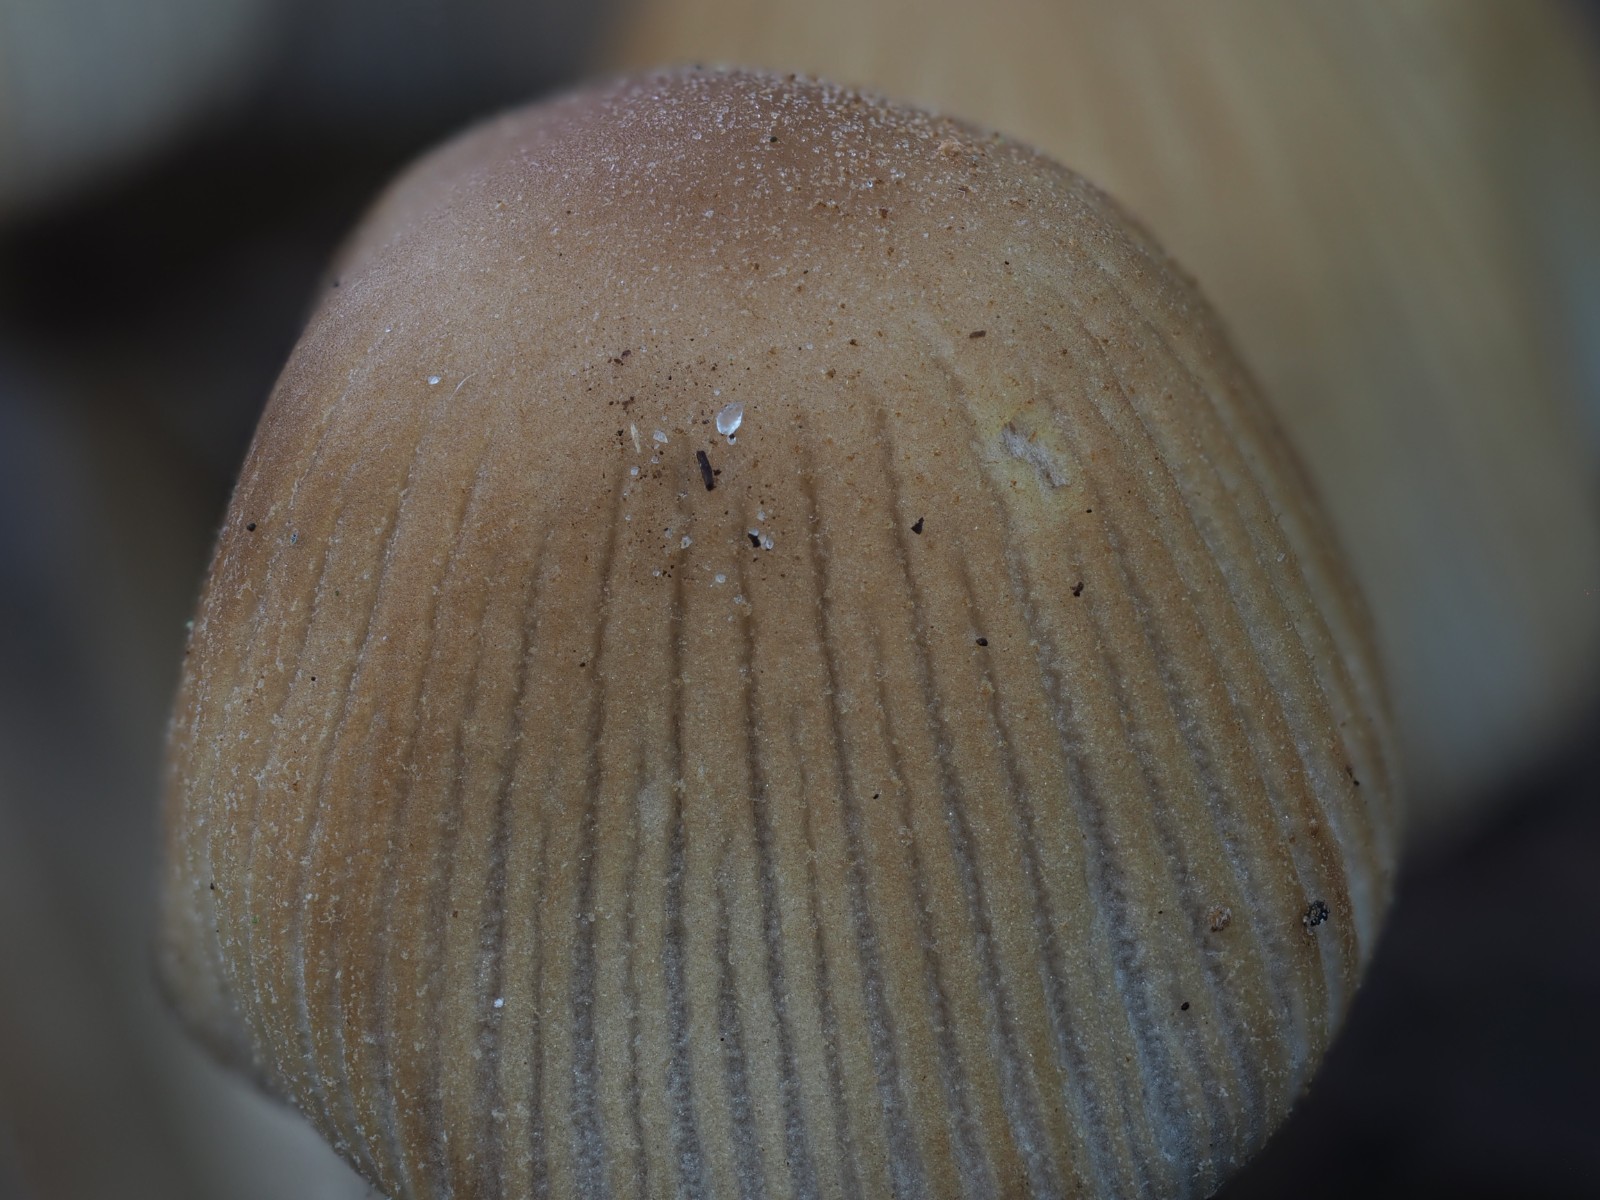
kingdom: Fungi
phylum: Basidiomycota
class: Agaricomycetes
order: Agaricales
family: Psathyrellaceae
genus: Coprinellus
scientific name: Coprinellus micaceus
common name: glimmer-blækhat
